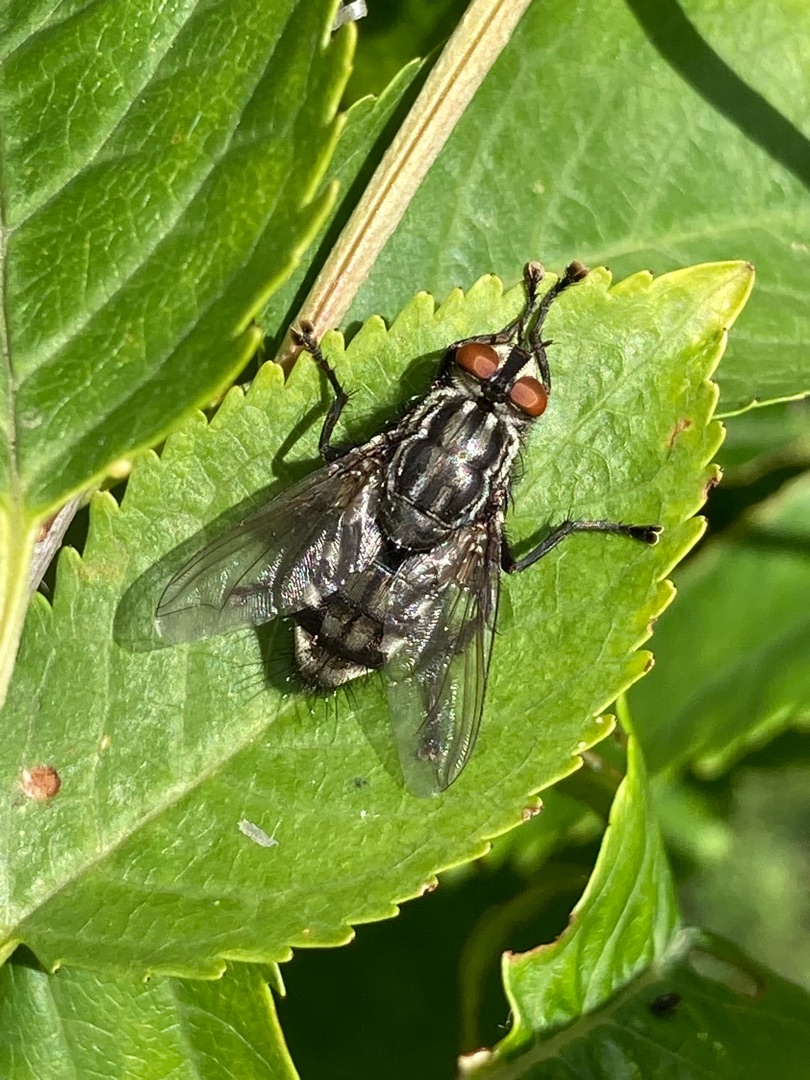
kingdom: Animalia
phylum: Arthropoda
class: Insecta
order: Diptera
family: Sarcophagidae
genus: Sarcophaga
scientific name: Sarcophaga
